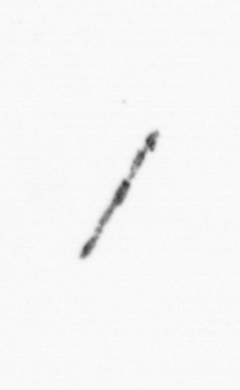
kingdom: Chromista
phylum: Ochrophyta
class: Bacillariophyceae
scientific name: Bacillariophyceae
